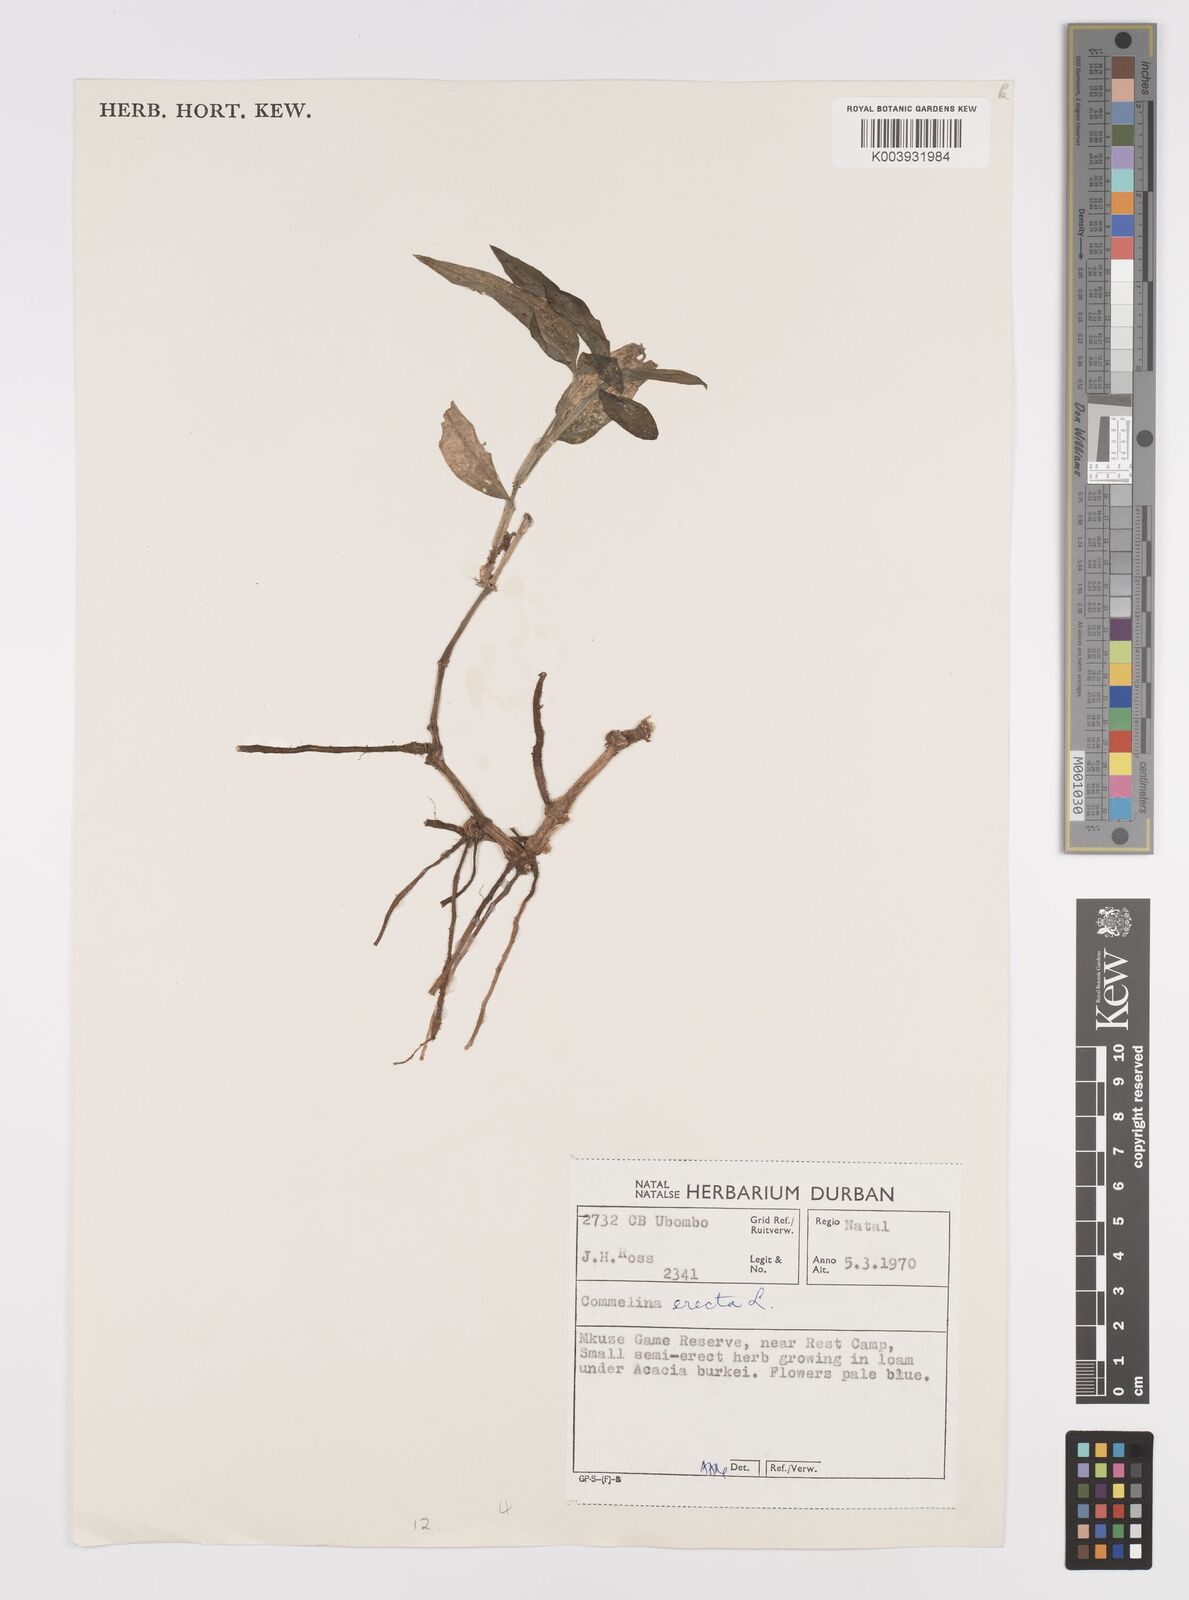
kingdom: Plantae
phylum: Tracheophyta
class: Liliopsida
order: Commelinales
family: Commelinaceae
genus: Commelina
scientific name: Commelina erecta
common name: Blousel blommetjie
